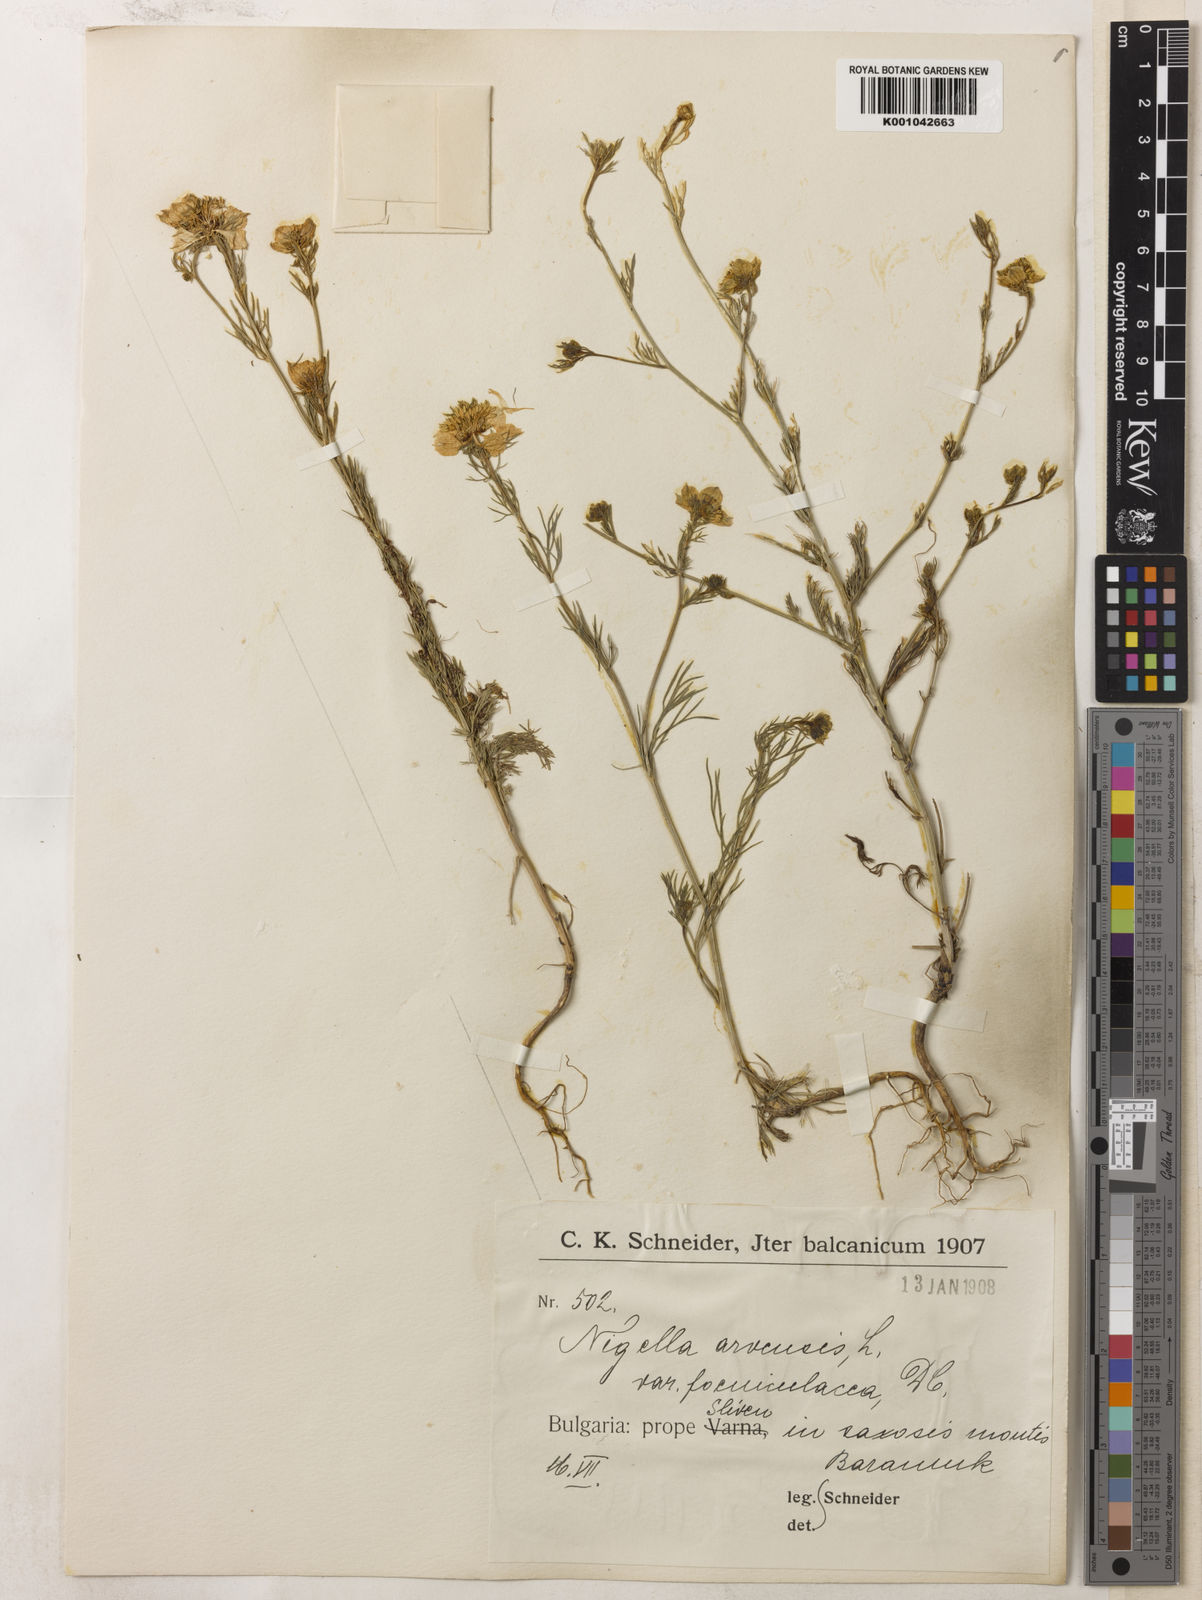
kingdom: Plantae
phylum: Tracheophyta
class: Magnoliopsida
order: Ranunculales
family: Ranunculaceae
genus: Nigella
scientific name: Nigella arvensis
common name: Wild fennel-flower
